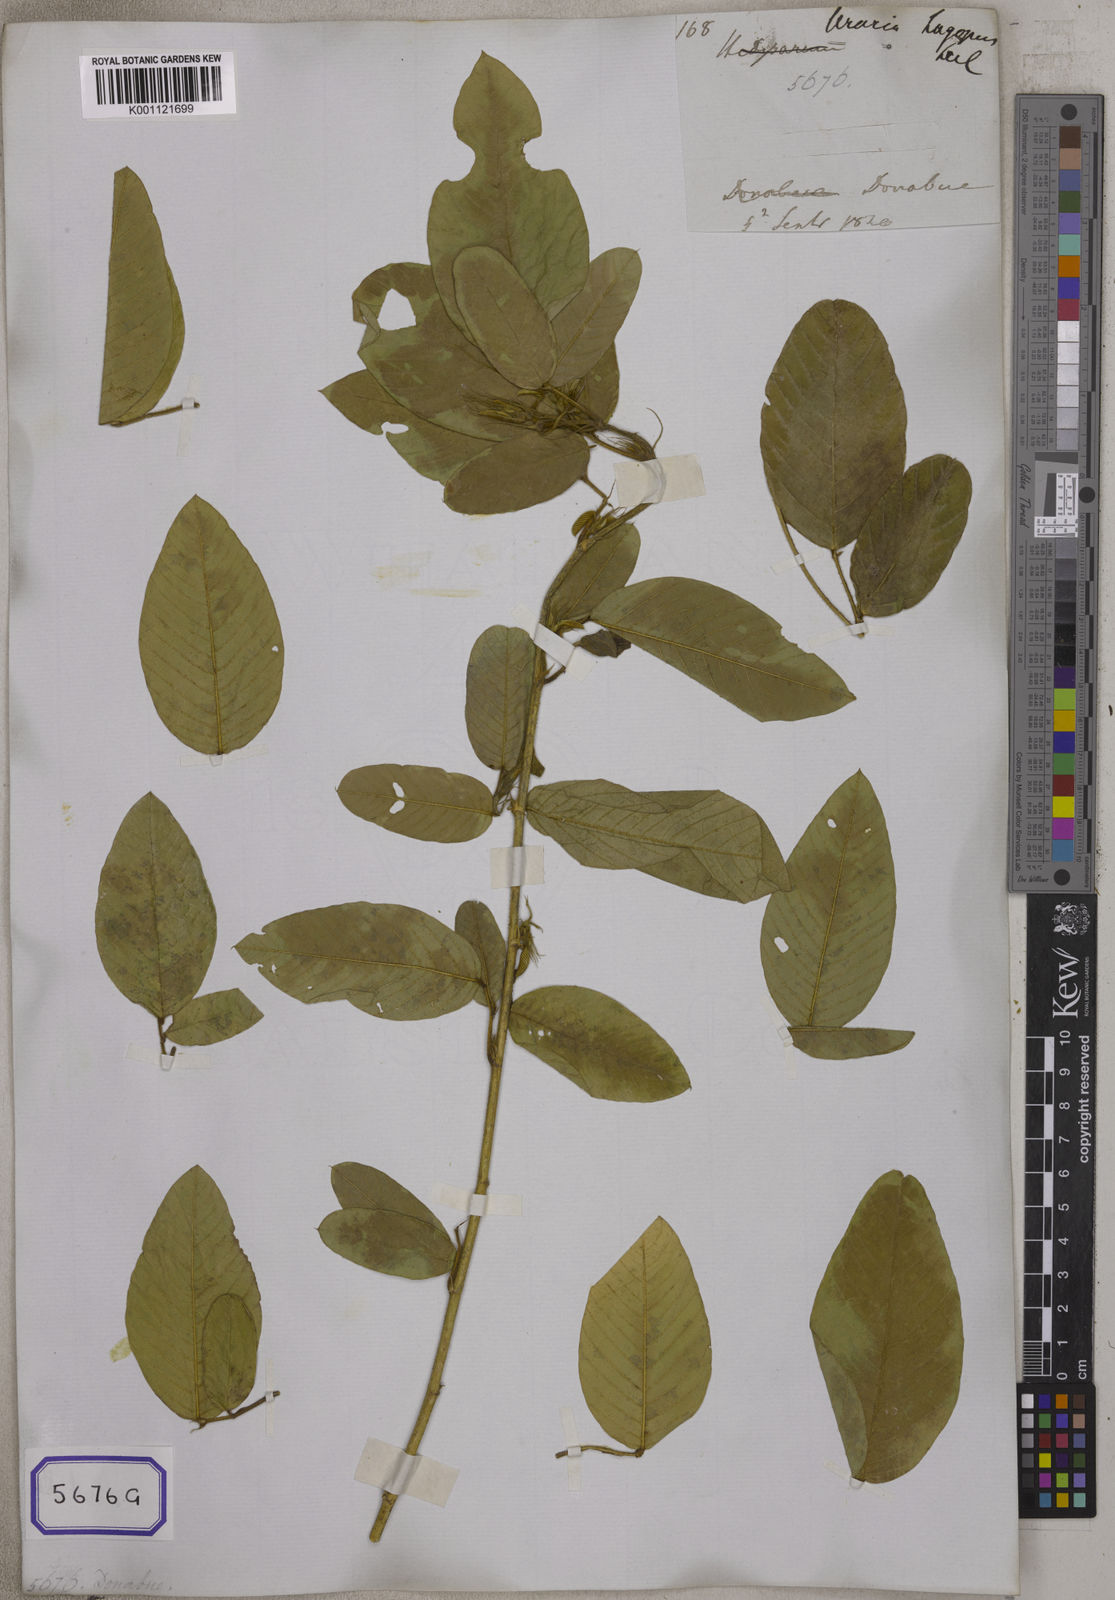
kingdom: Plantae
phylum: Tracheophyta
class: Magnoliopsida
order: Fabales
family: Fabaceae
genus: Uraria
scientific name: Uraria lagopodioides
